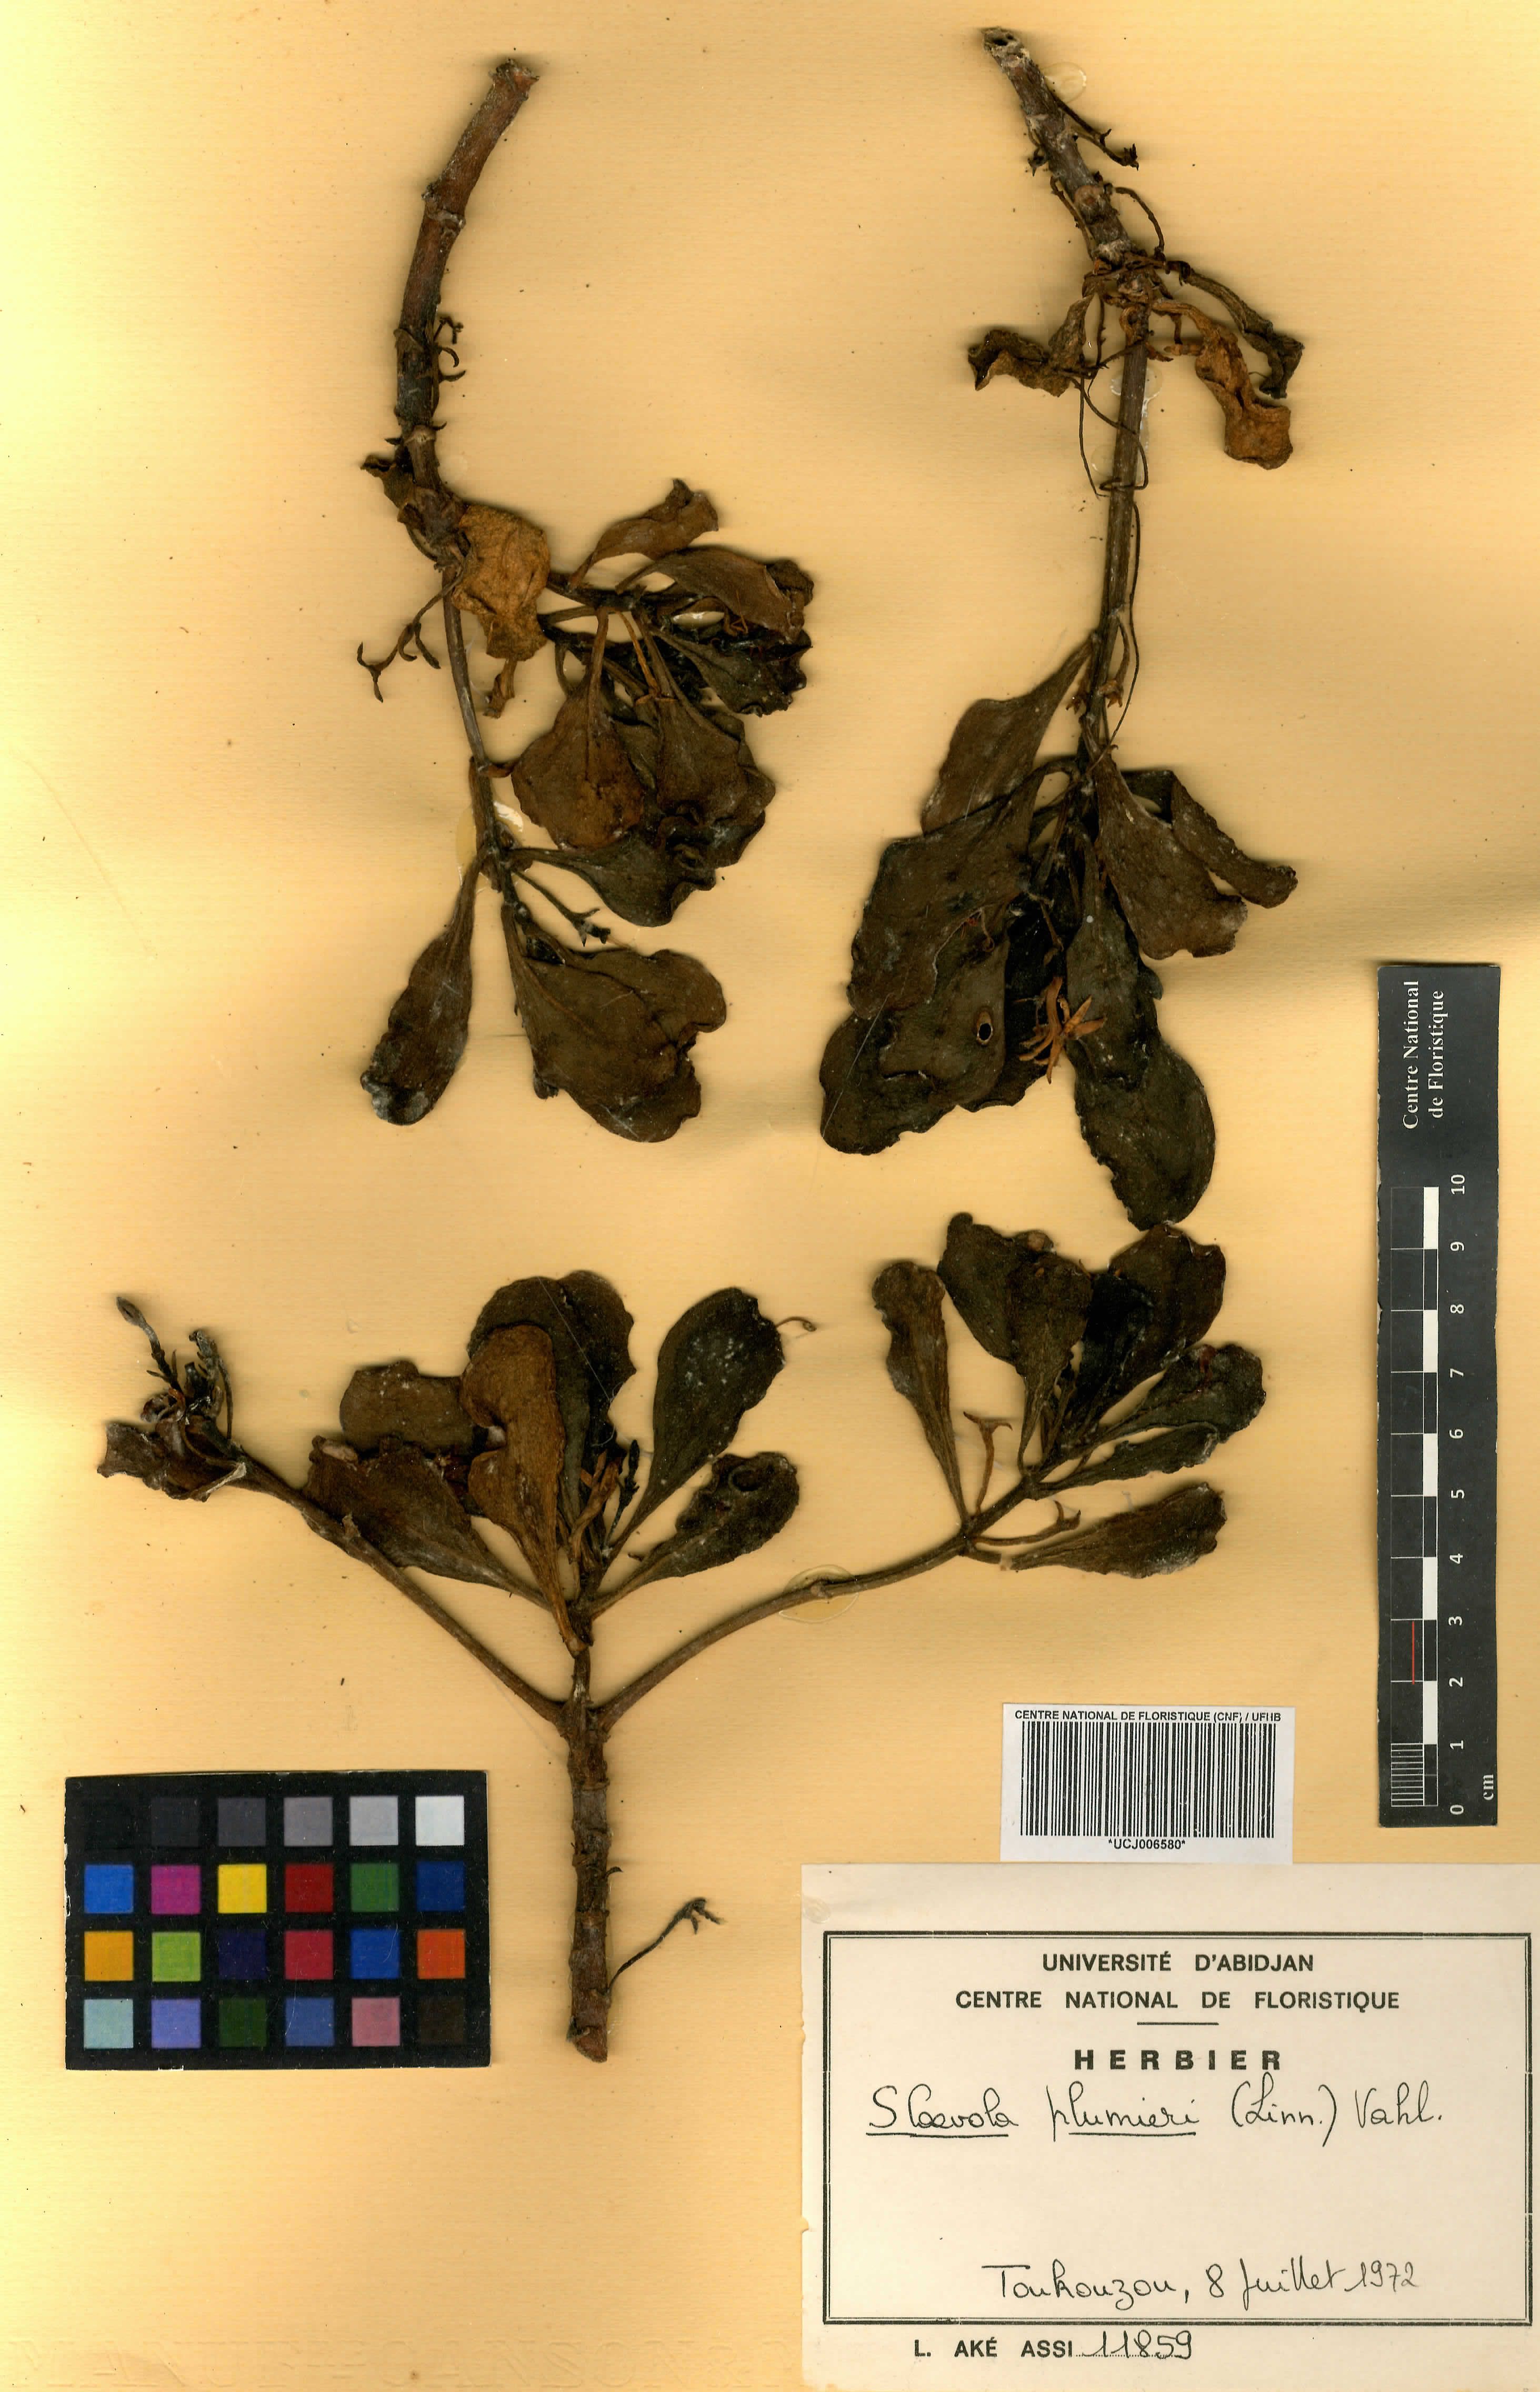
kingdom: Plantae
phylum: Tracheophyta
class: Magnoliopsida
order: Asterales
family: Goodeniaceae
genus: Scaevola
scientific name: Scaevola plumieri
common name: Gull feed
